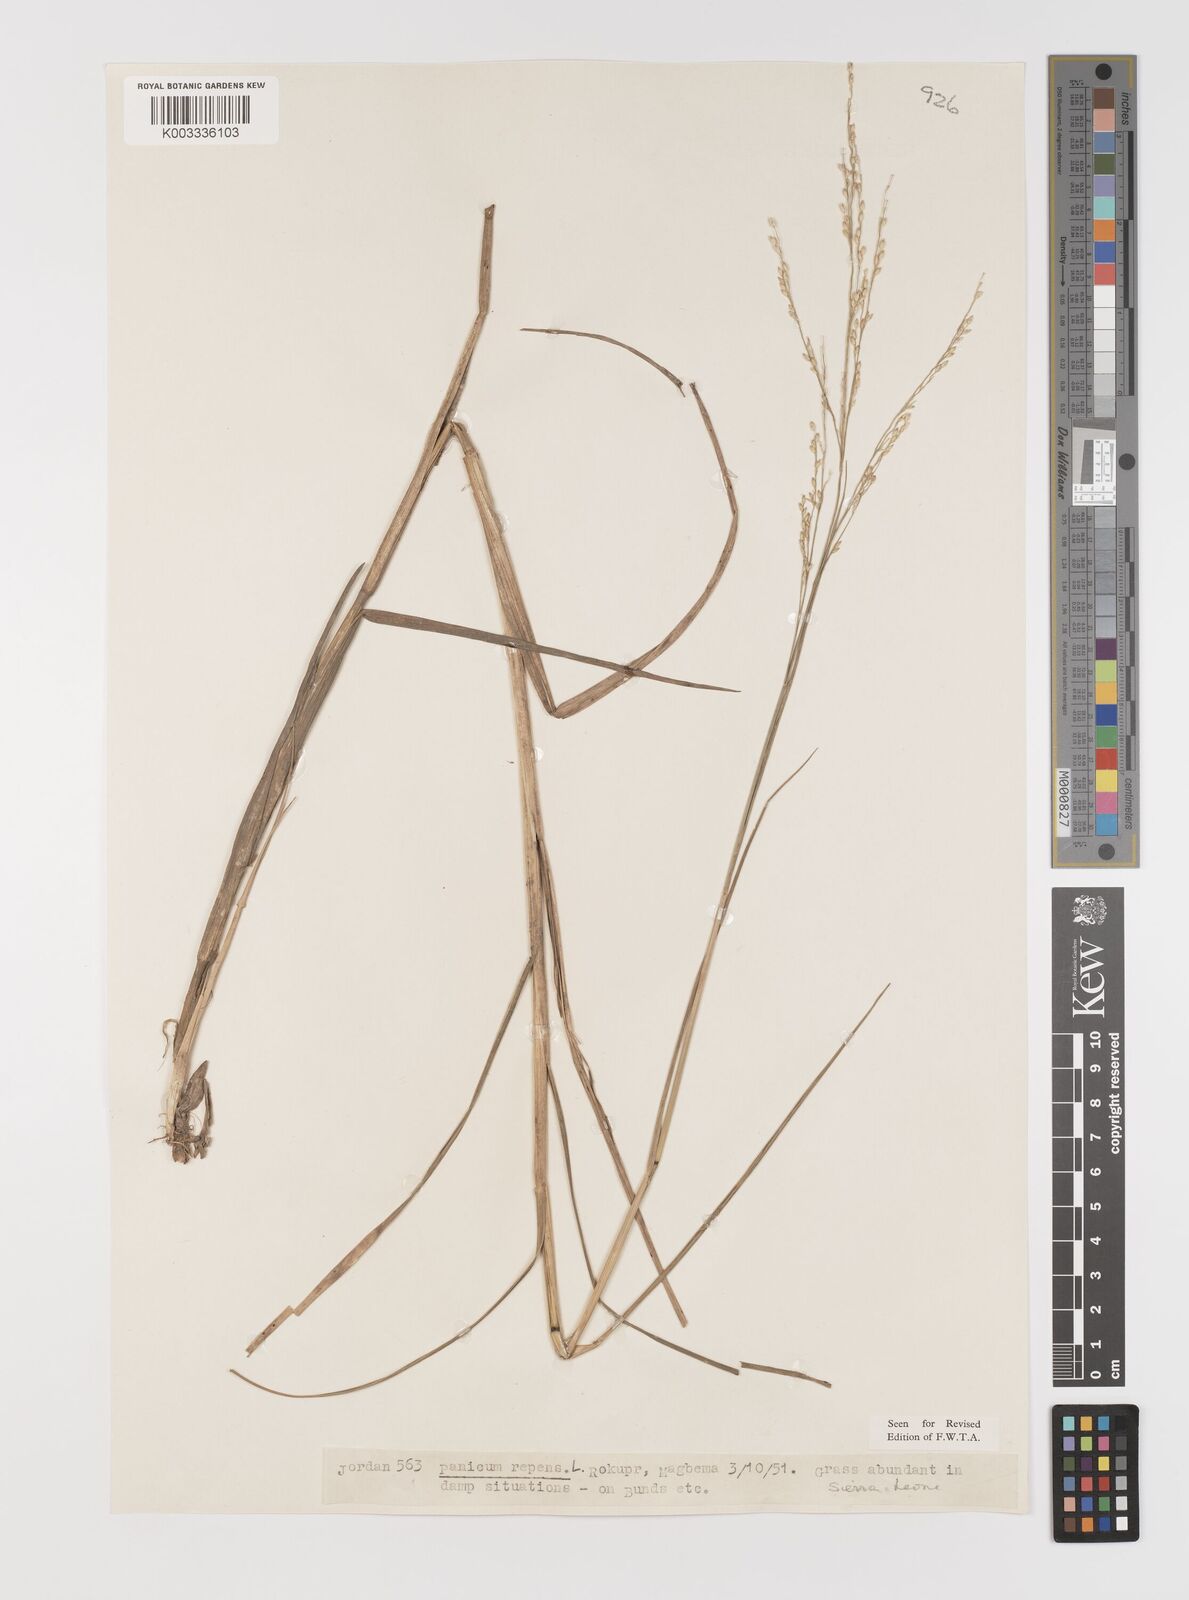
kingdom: Plantae
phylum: Tracheophyta
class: Liliopsida
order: Poales
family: Poaceae
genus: Panicum
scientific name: Panicum repens
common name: Torpedo grass
